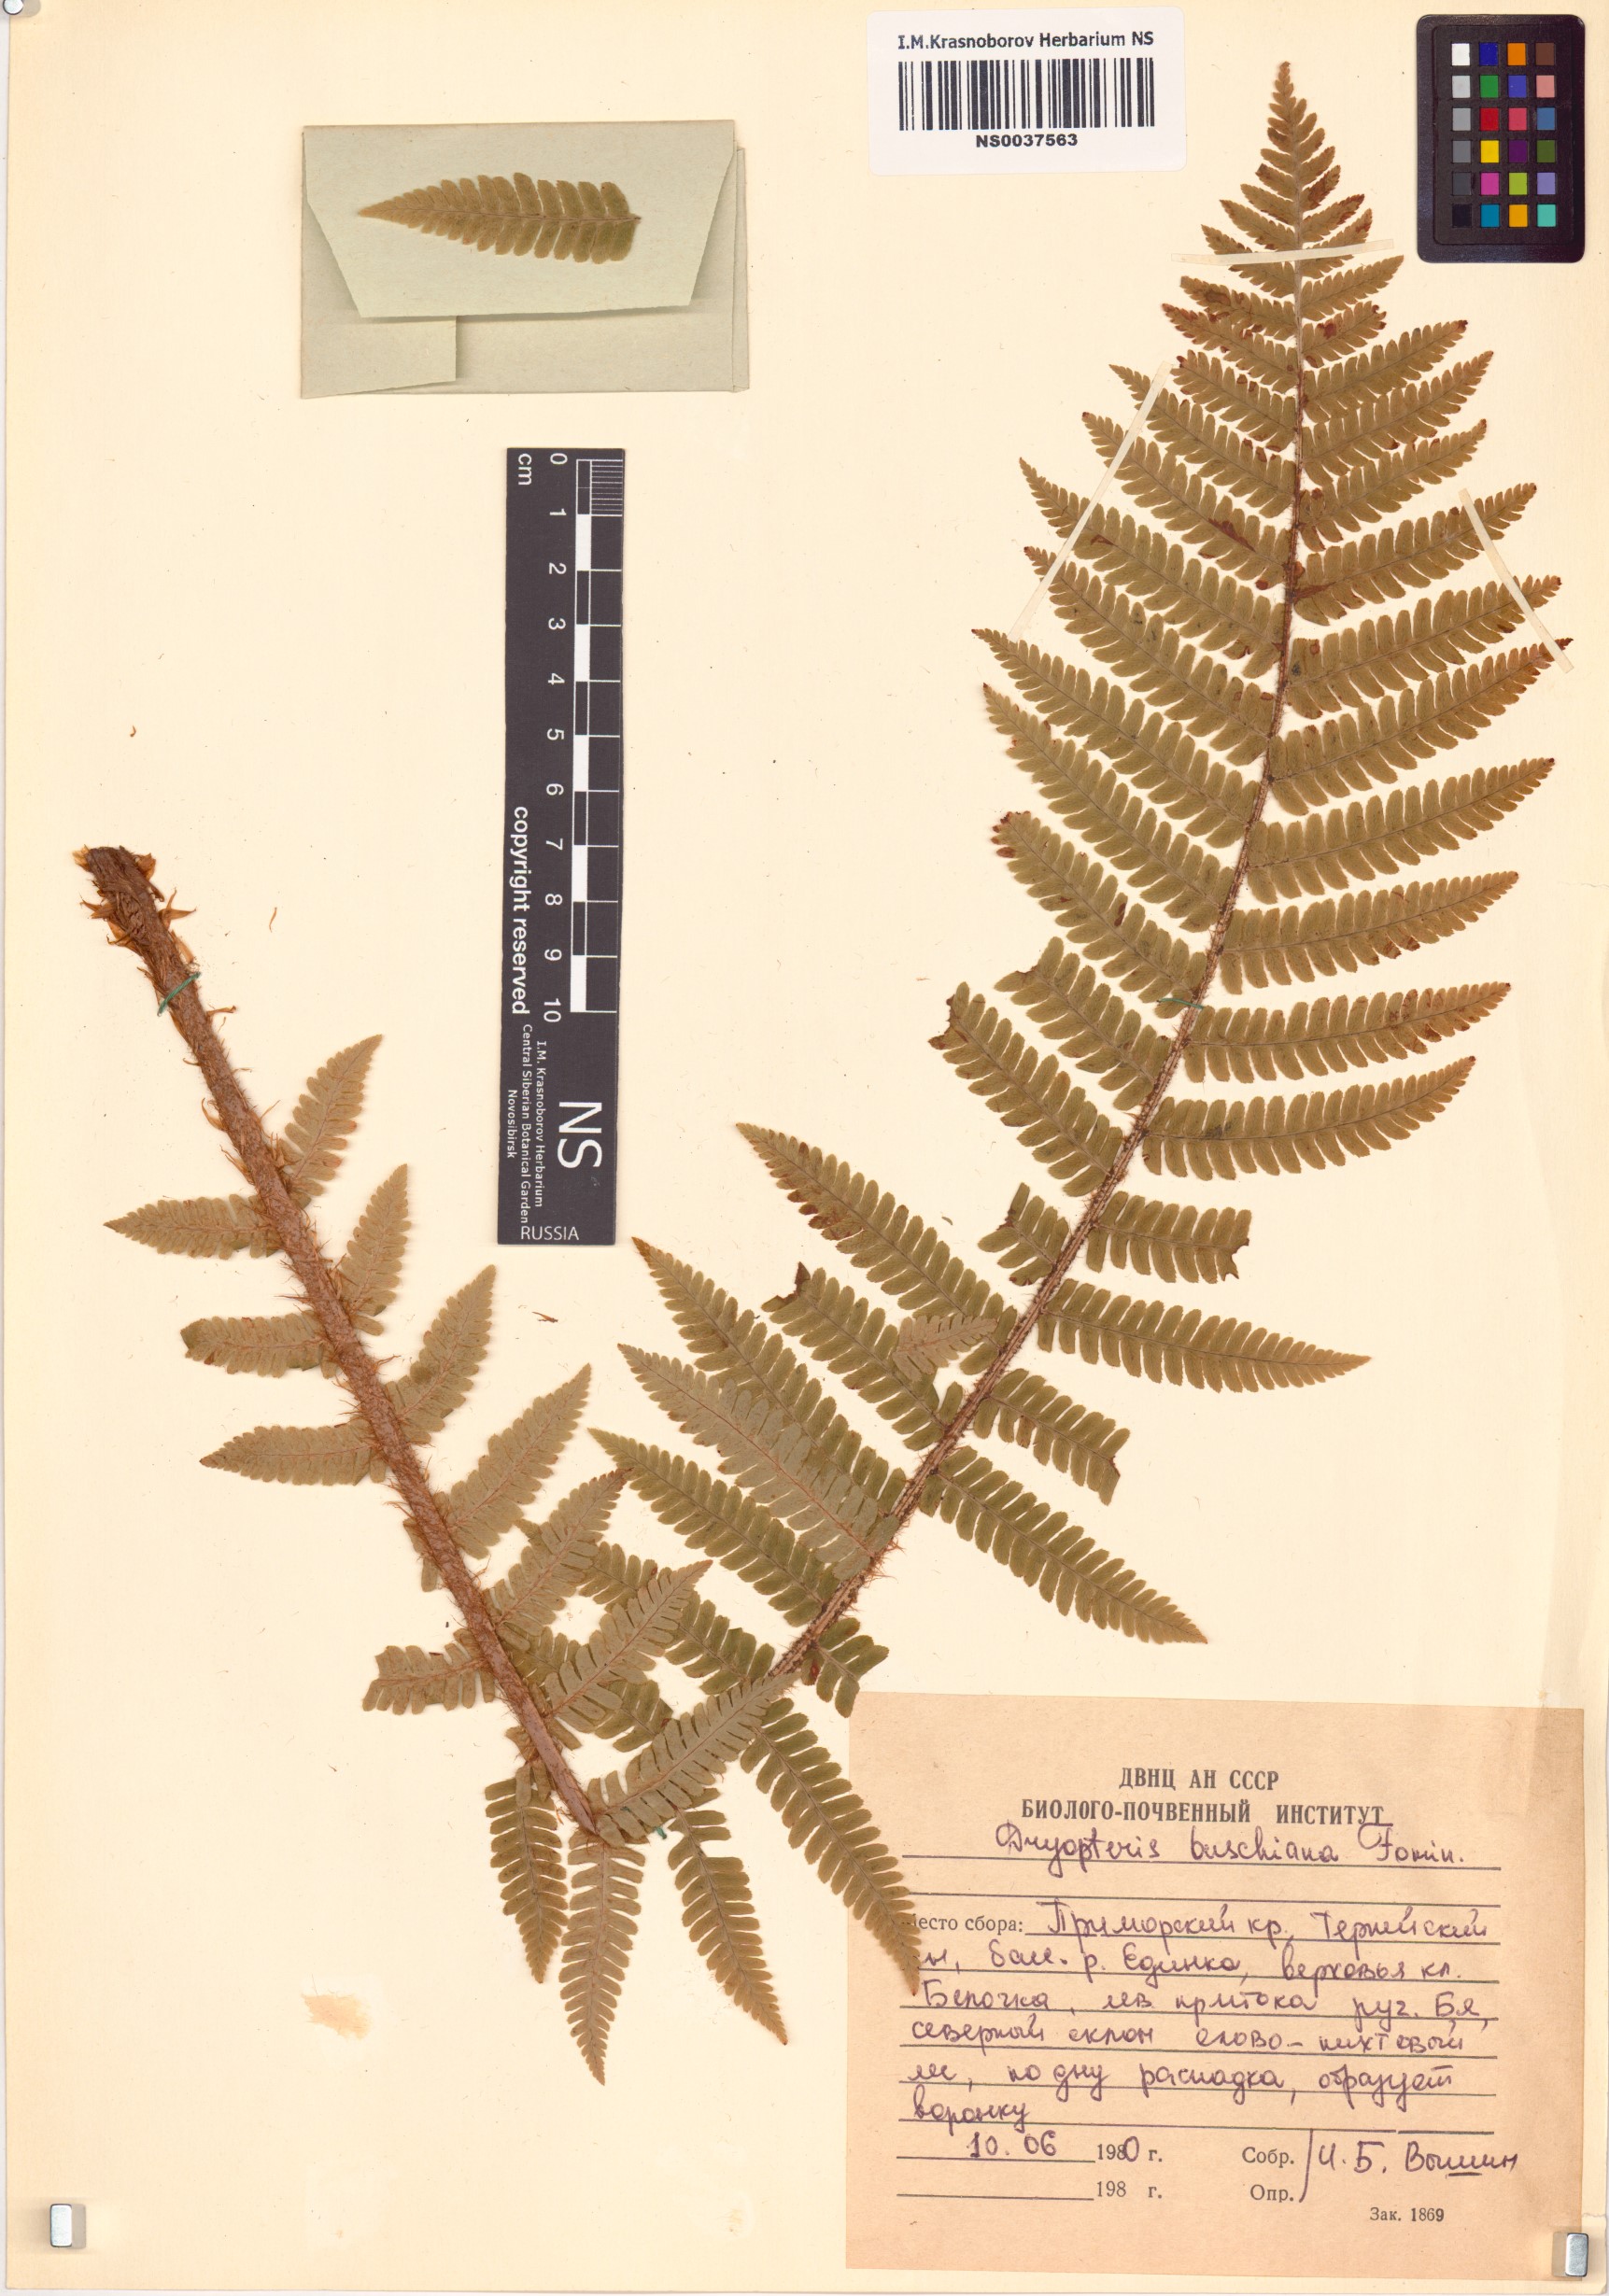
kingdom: Plantae
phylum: Tracheophyta
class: Polypodiopsida
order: Polypodiales
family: Dryopteridaceae
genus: Dryopteris
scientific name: Dryopteris crassirhizoma
